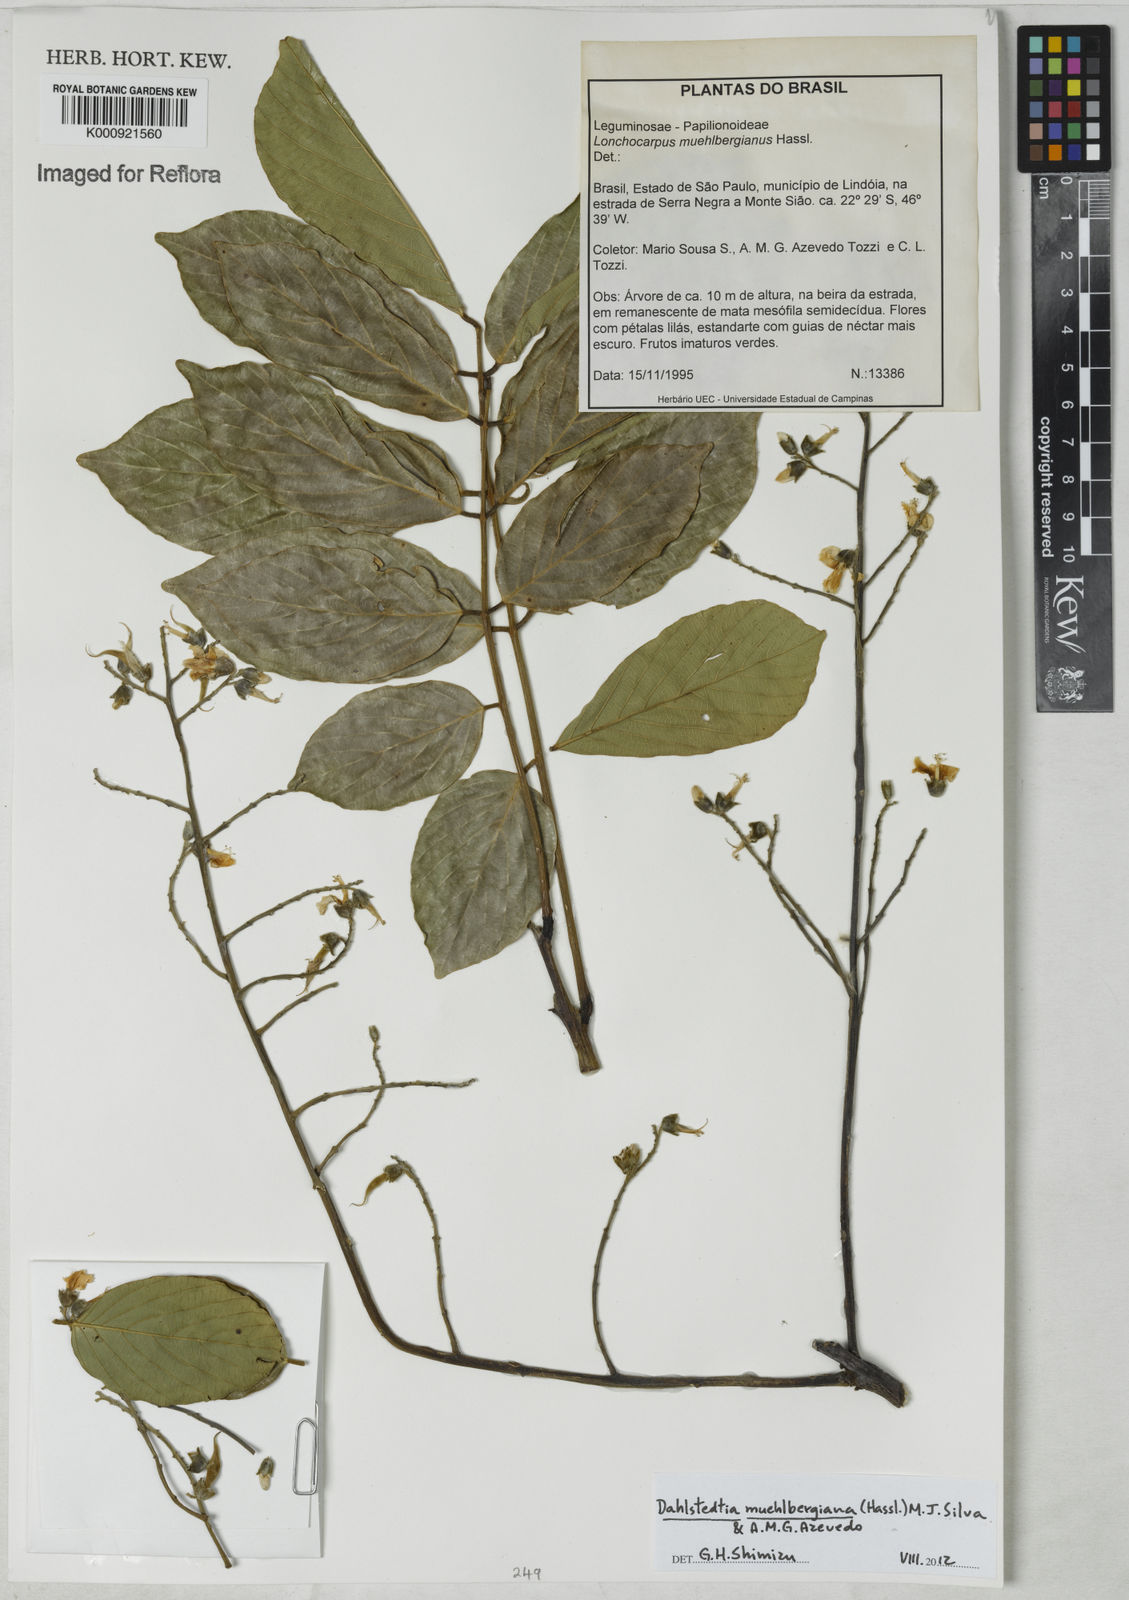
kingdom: Plantae
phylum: Tracheophyta
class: Magnoliopsida
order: Fabales
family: Fabaceae
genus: Dahlstedtia
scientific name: Dahlstedtia muehlbergiana
